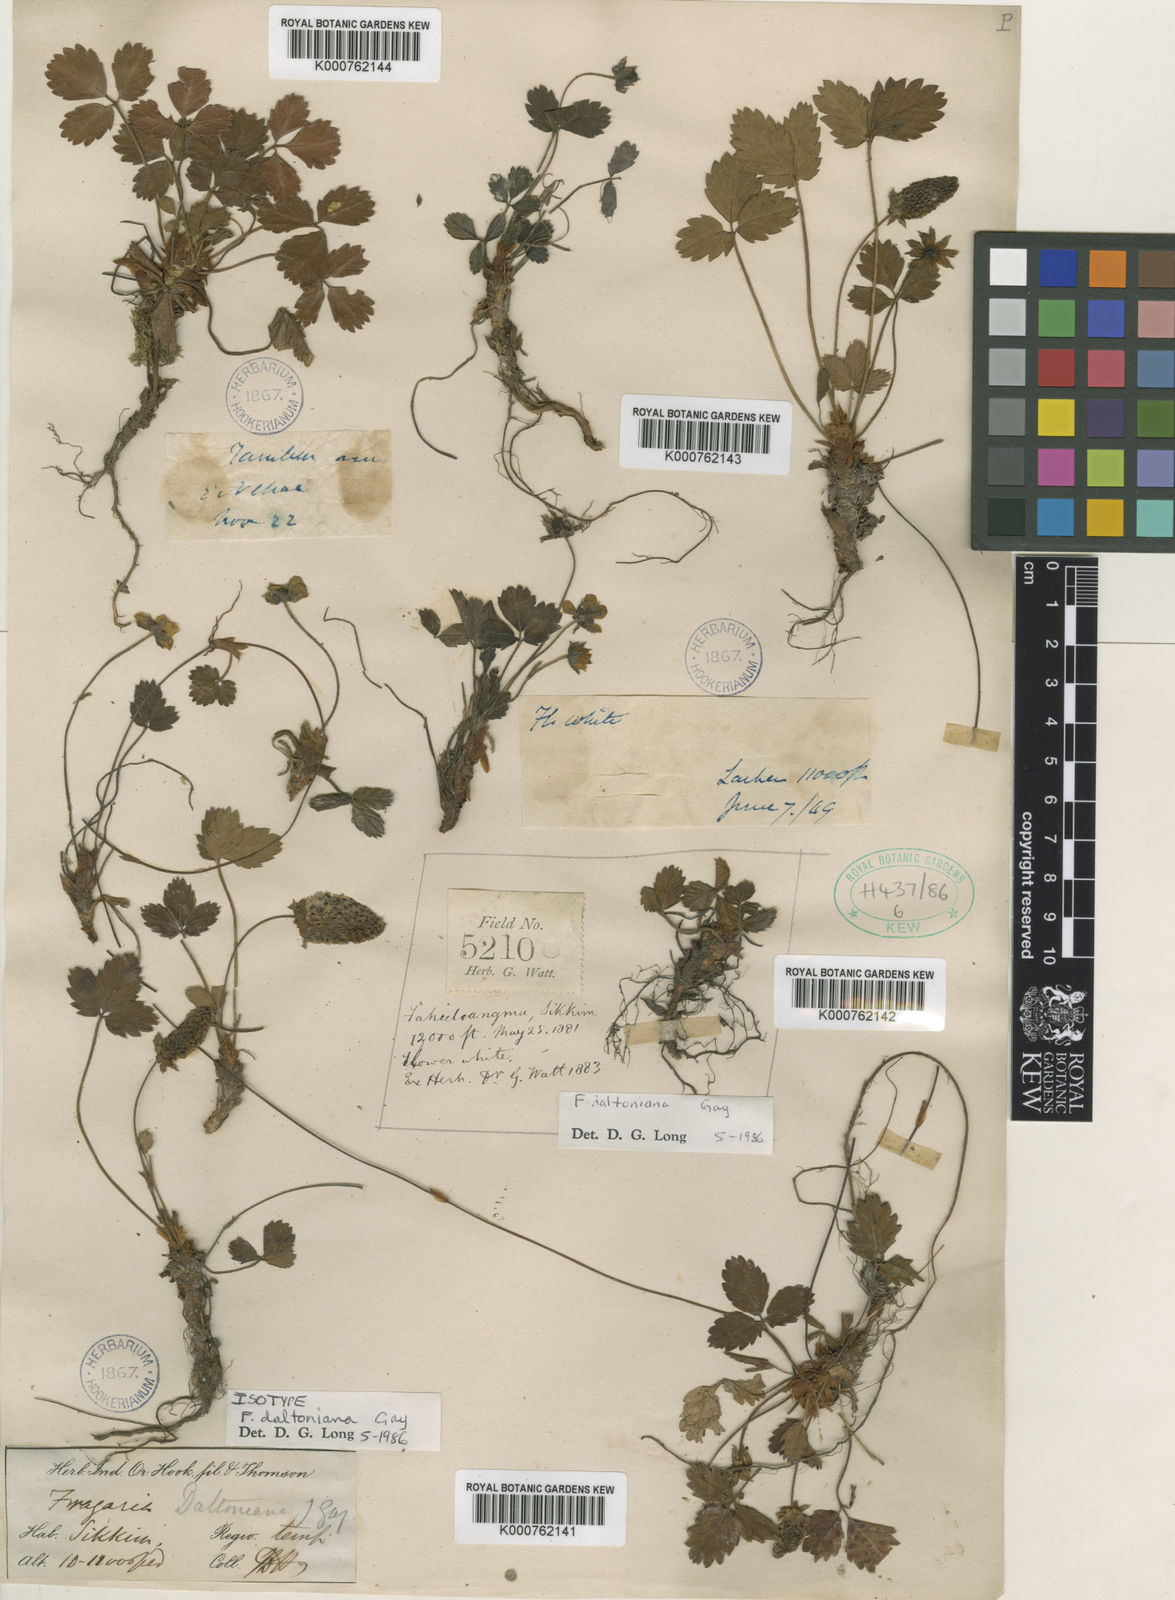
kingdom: Plantae
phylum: Tracheophyta
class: Magnoliopsida
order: Rosales
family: Rosaceae
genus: Fragaria
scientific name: Fragaria daltoniana
